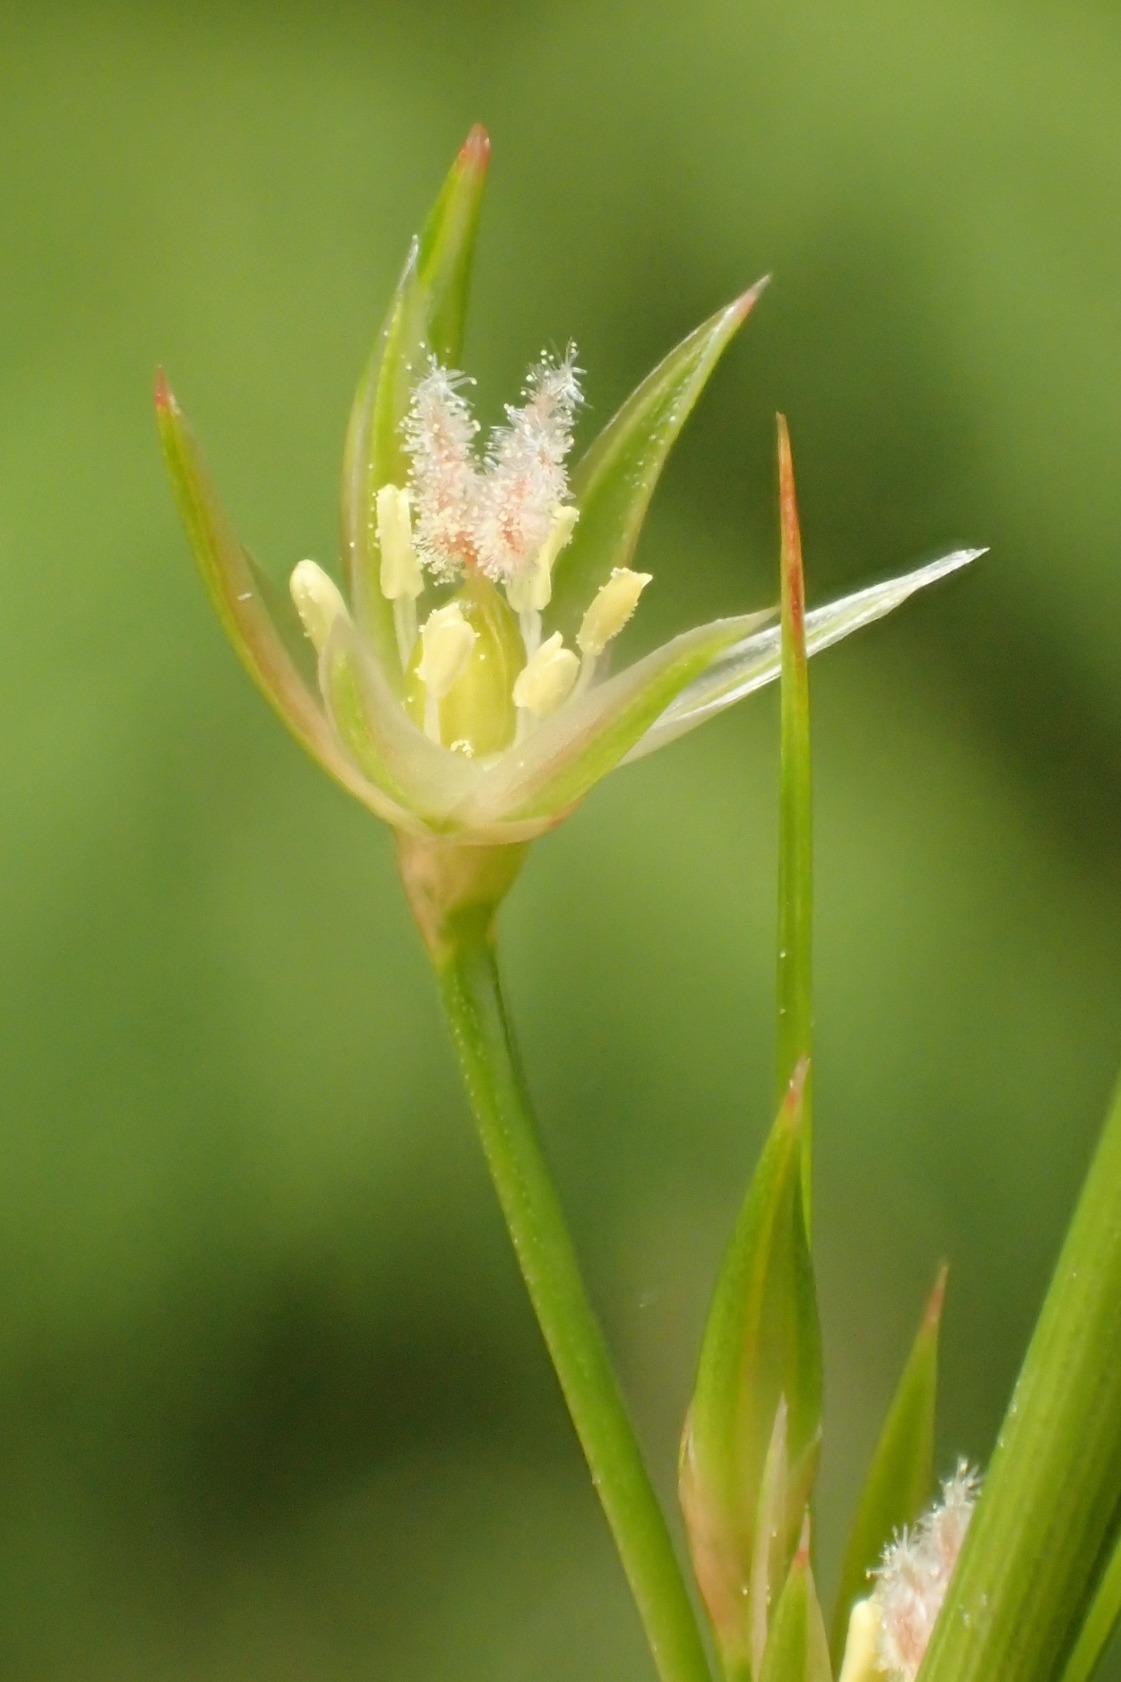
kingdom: Plantae
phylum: Tracheophyta
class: Liliopsida
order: Poales
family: Juncaceae
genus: Juncus
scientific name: Juncus tenuis
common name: Tue-siv
